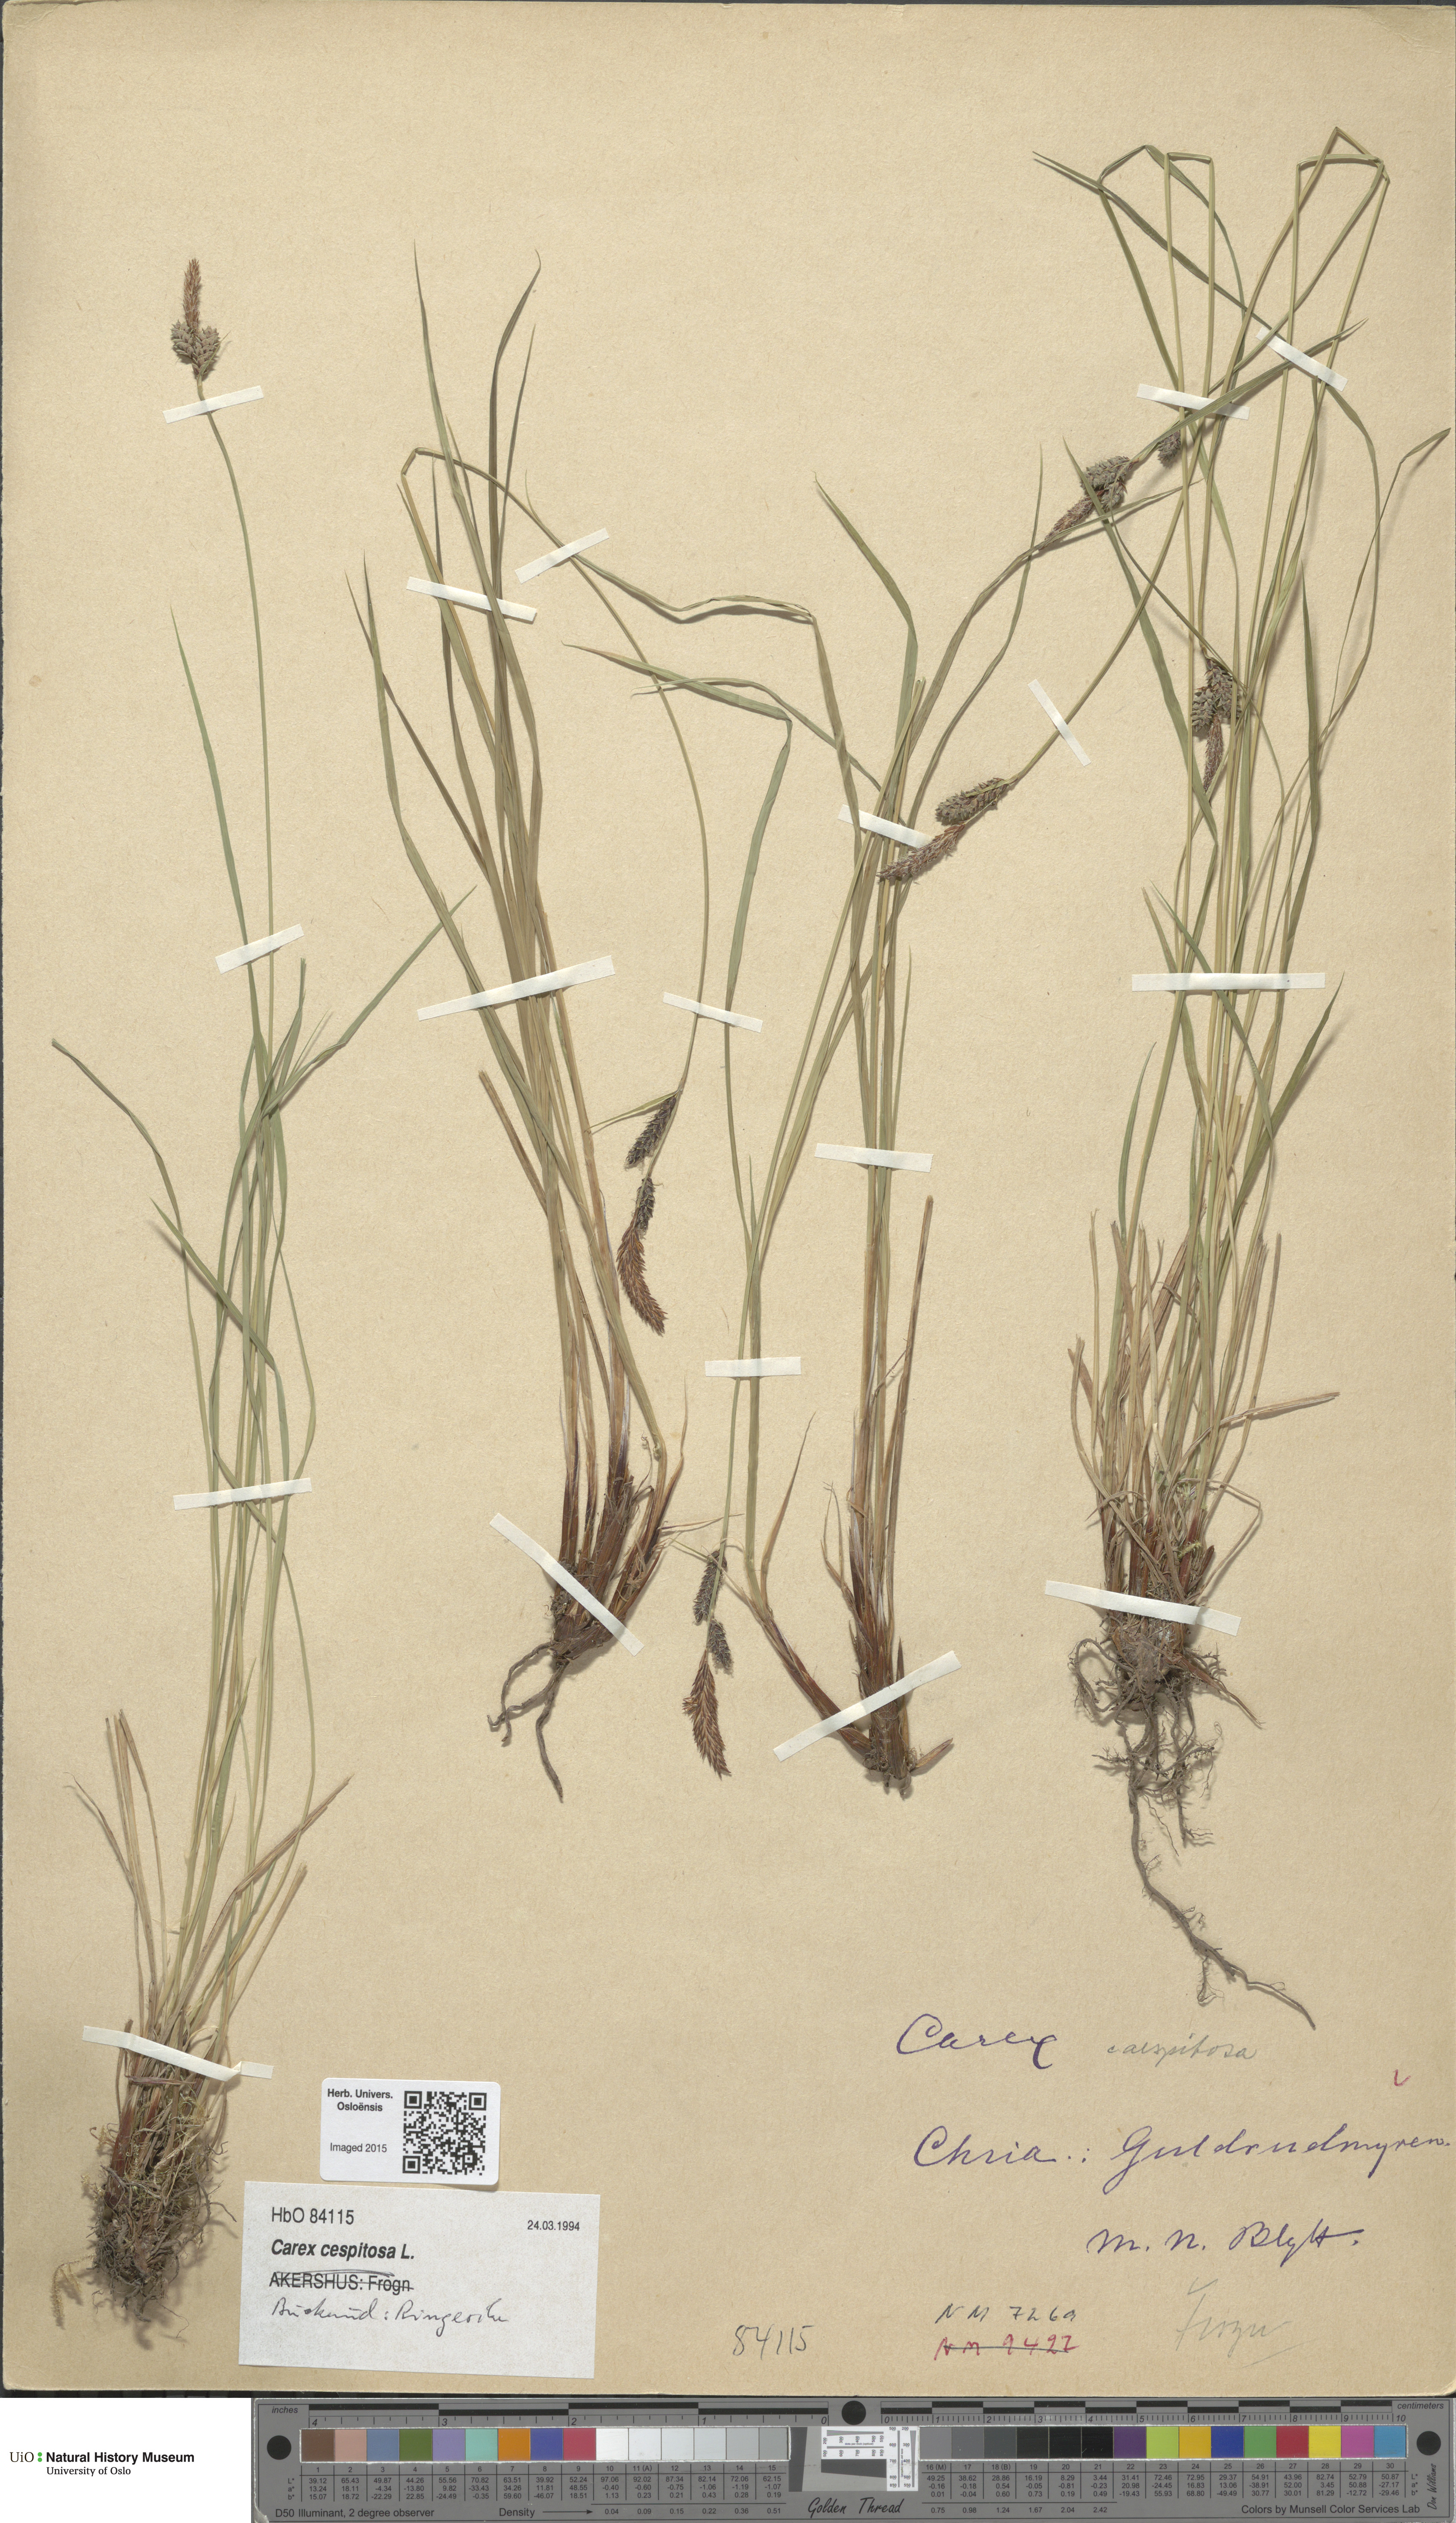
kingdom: Plantae
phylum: Tracheophyta
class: Liliopsida
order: Poales
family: Cyperaceae
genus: Carex
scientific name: Carex cespitosa
